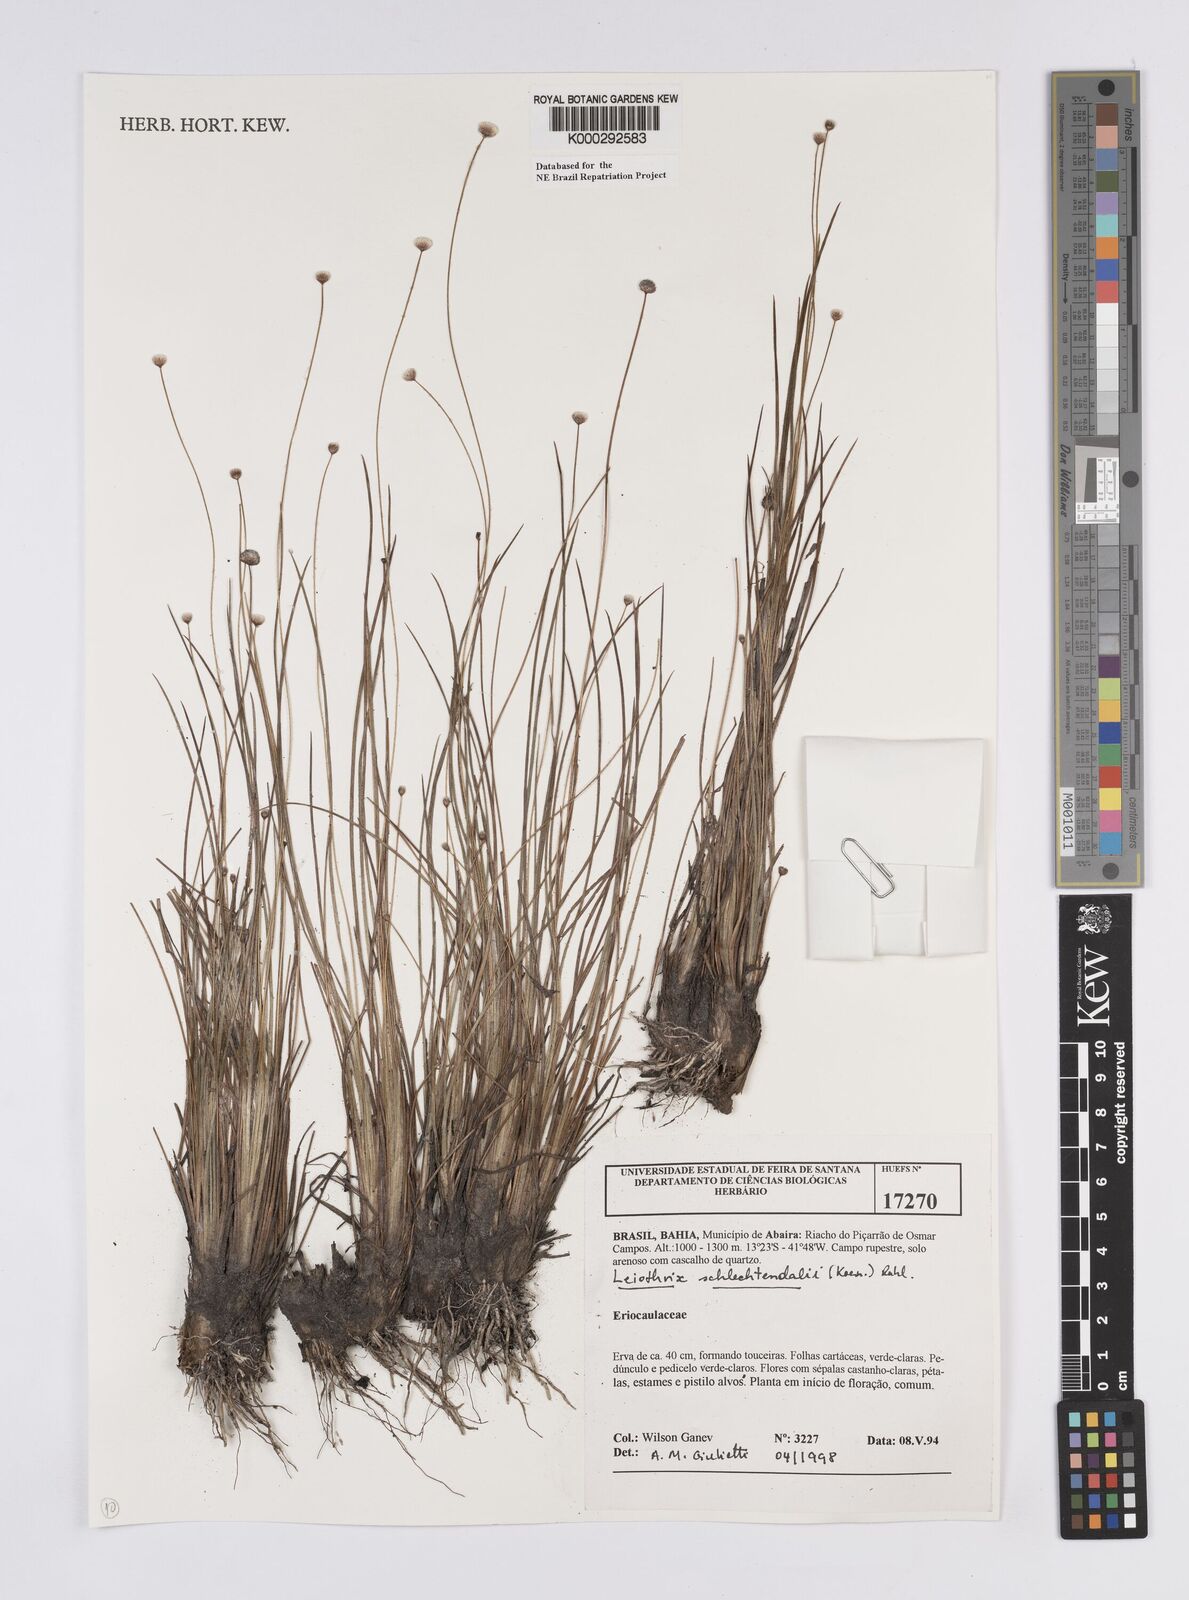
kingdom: Plantae
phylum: Tracheophyta
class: Liliopsida
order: Poales
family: Eriocaulaceae
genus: Leiothrix
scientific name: Leiothrix schlechtendalii
